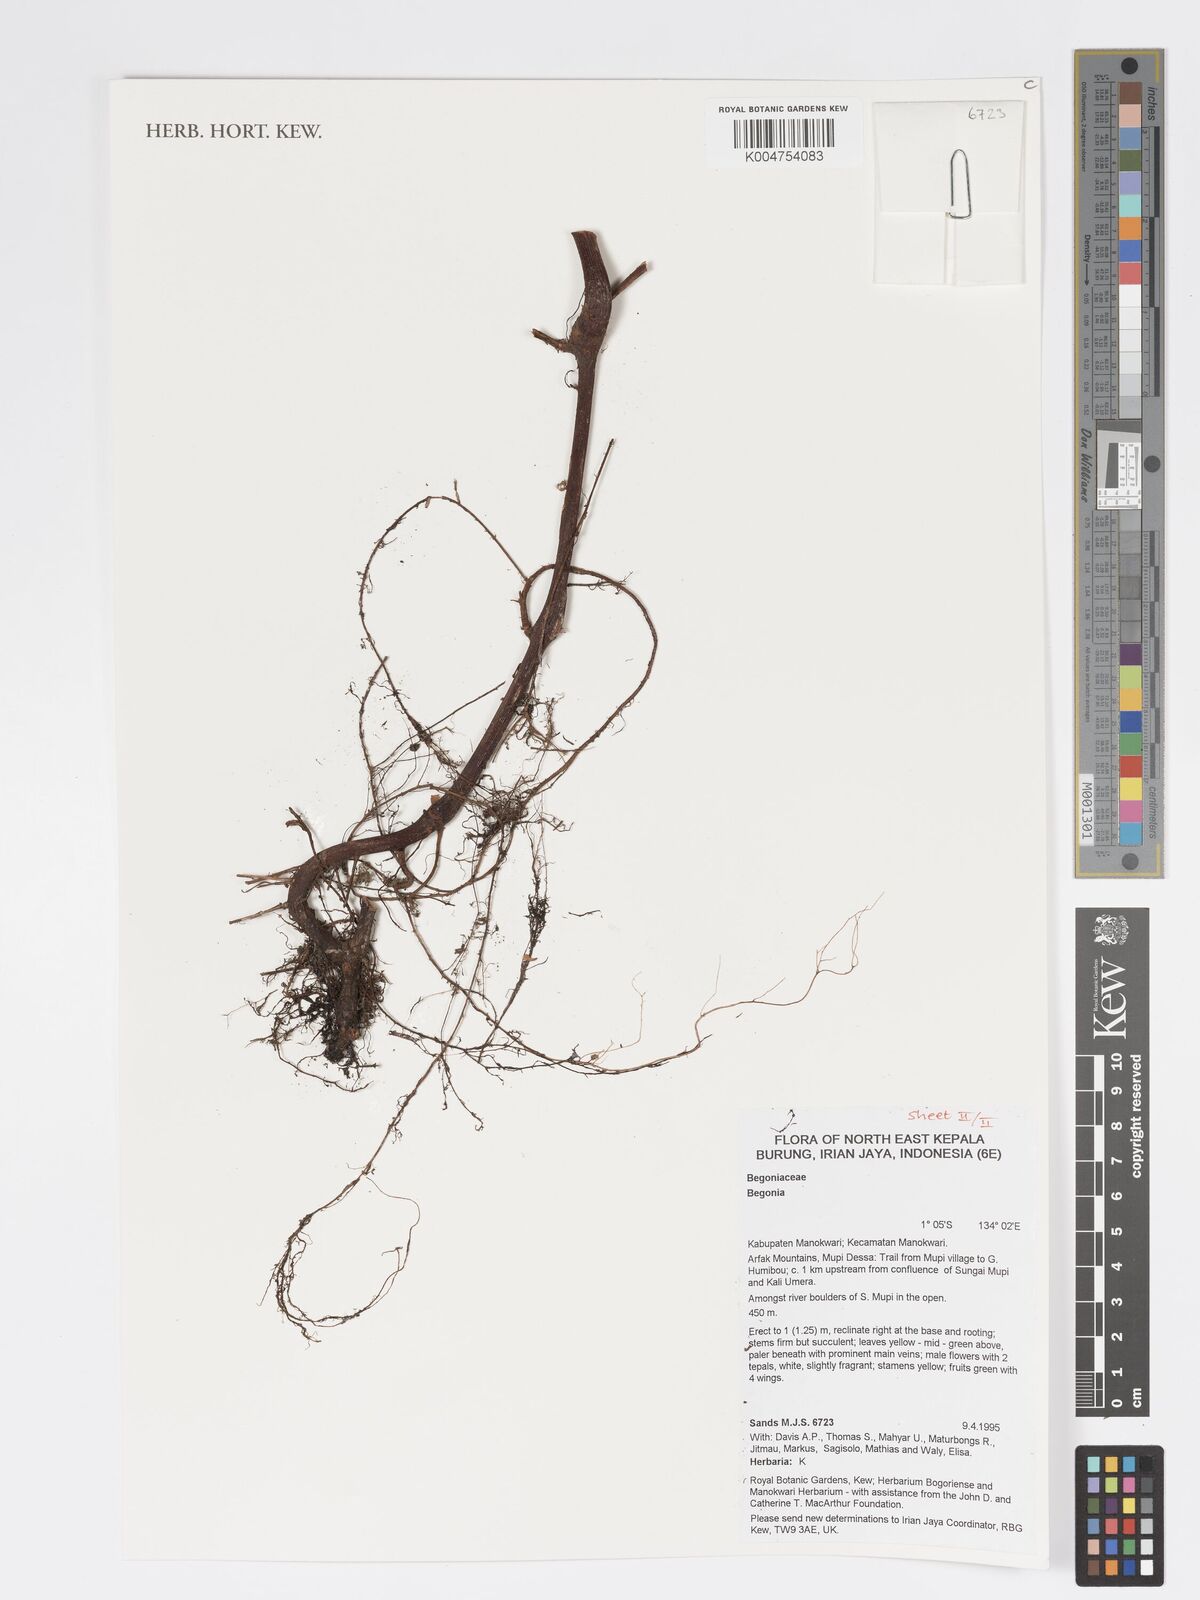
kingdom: Plantae
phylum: Tracheophyta
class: Magnoliopsida
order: Cucurbitales
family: Begoniaceae
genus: Begonia
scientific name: Begonia
